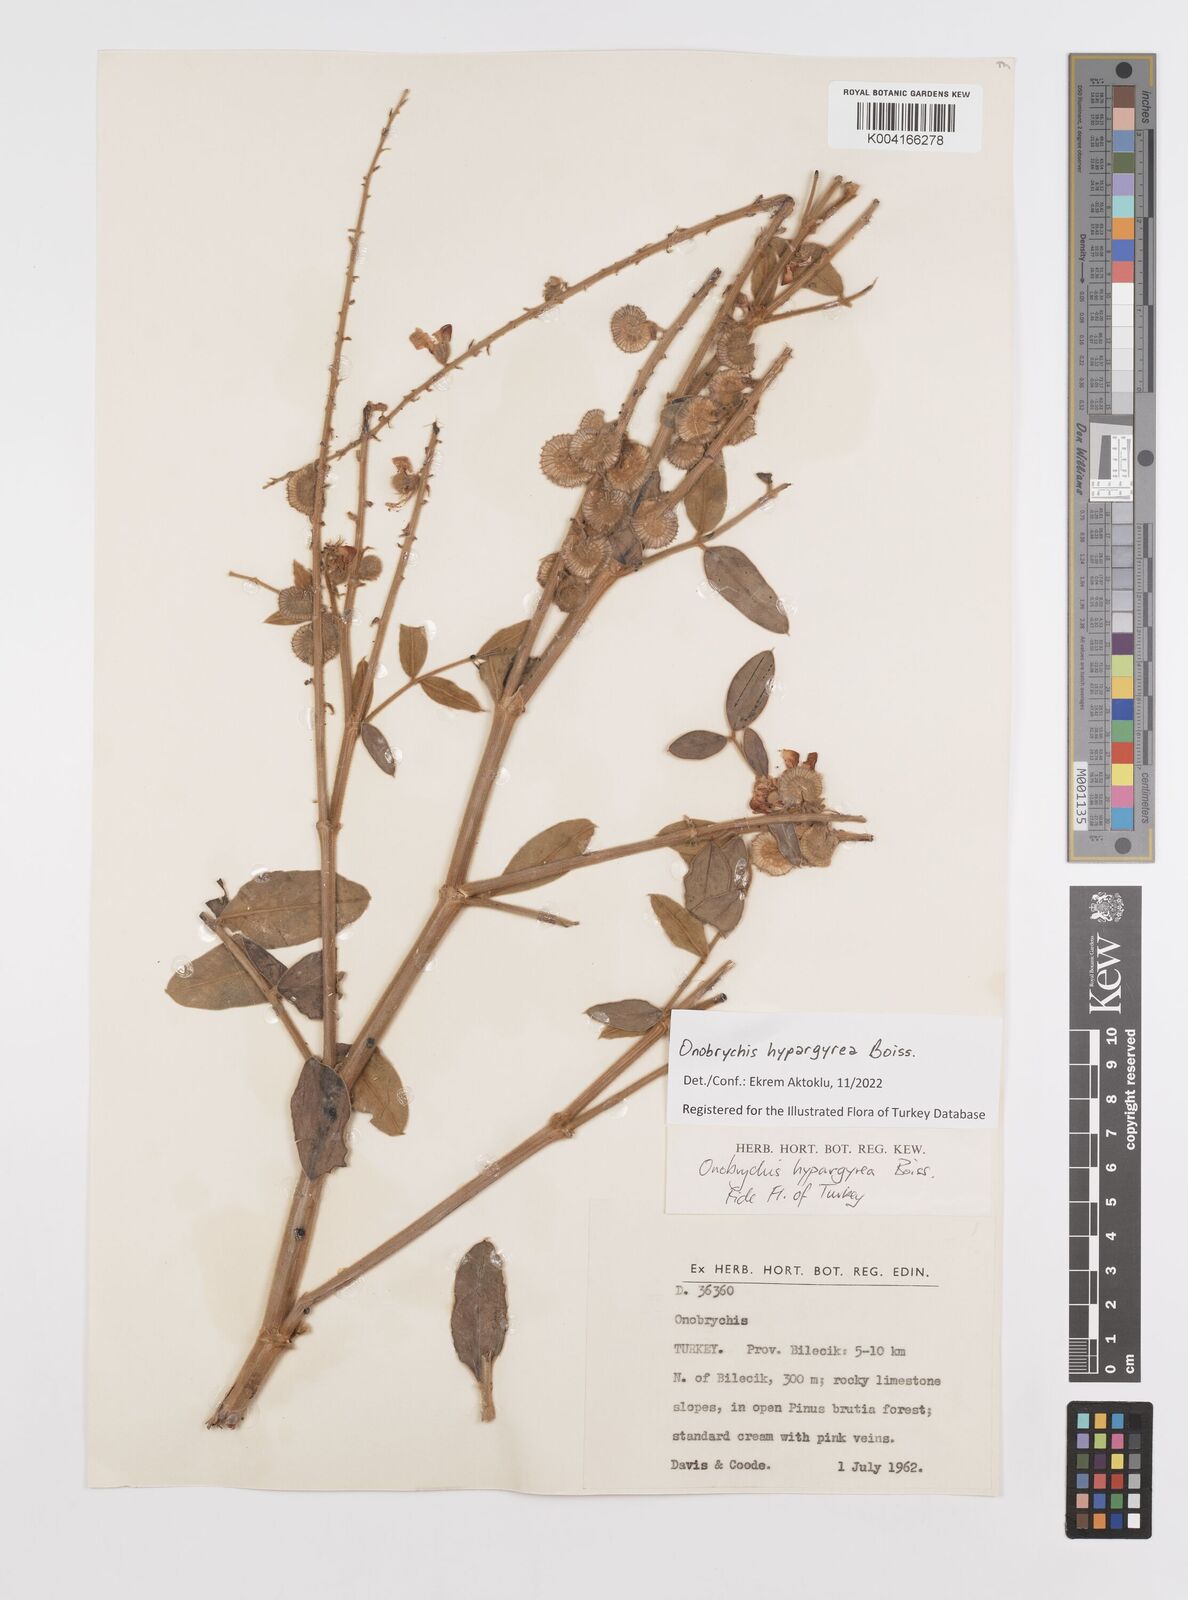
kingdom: Plantae
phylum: Tracheophyta
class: Magnoliopsida
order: Fabales
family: Fabaceae
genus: Onobrychis
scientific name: Onobrychis hypargyrea
